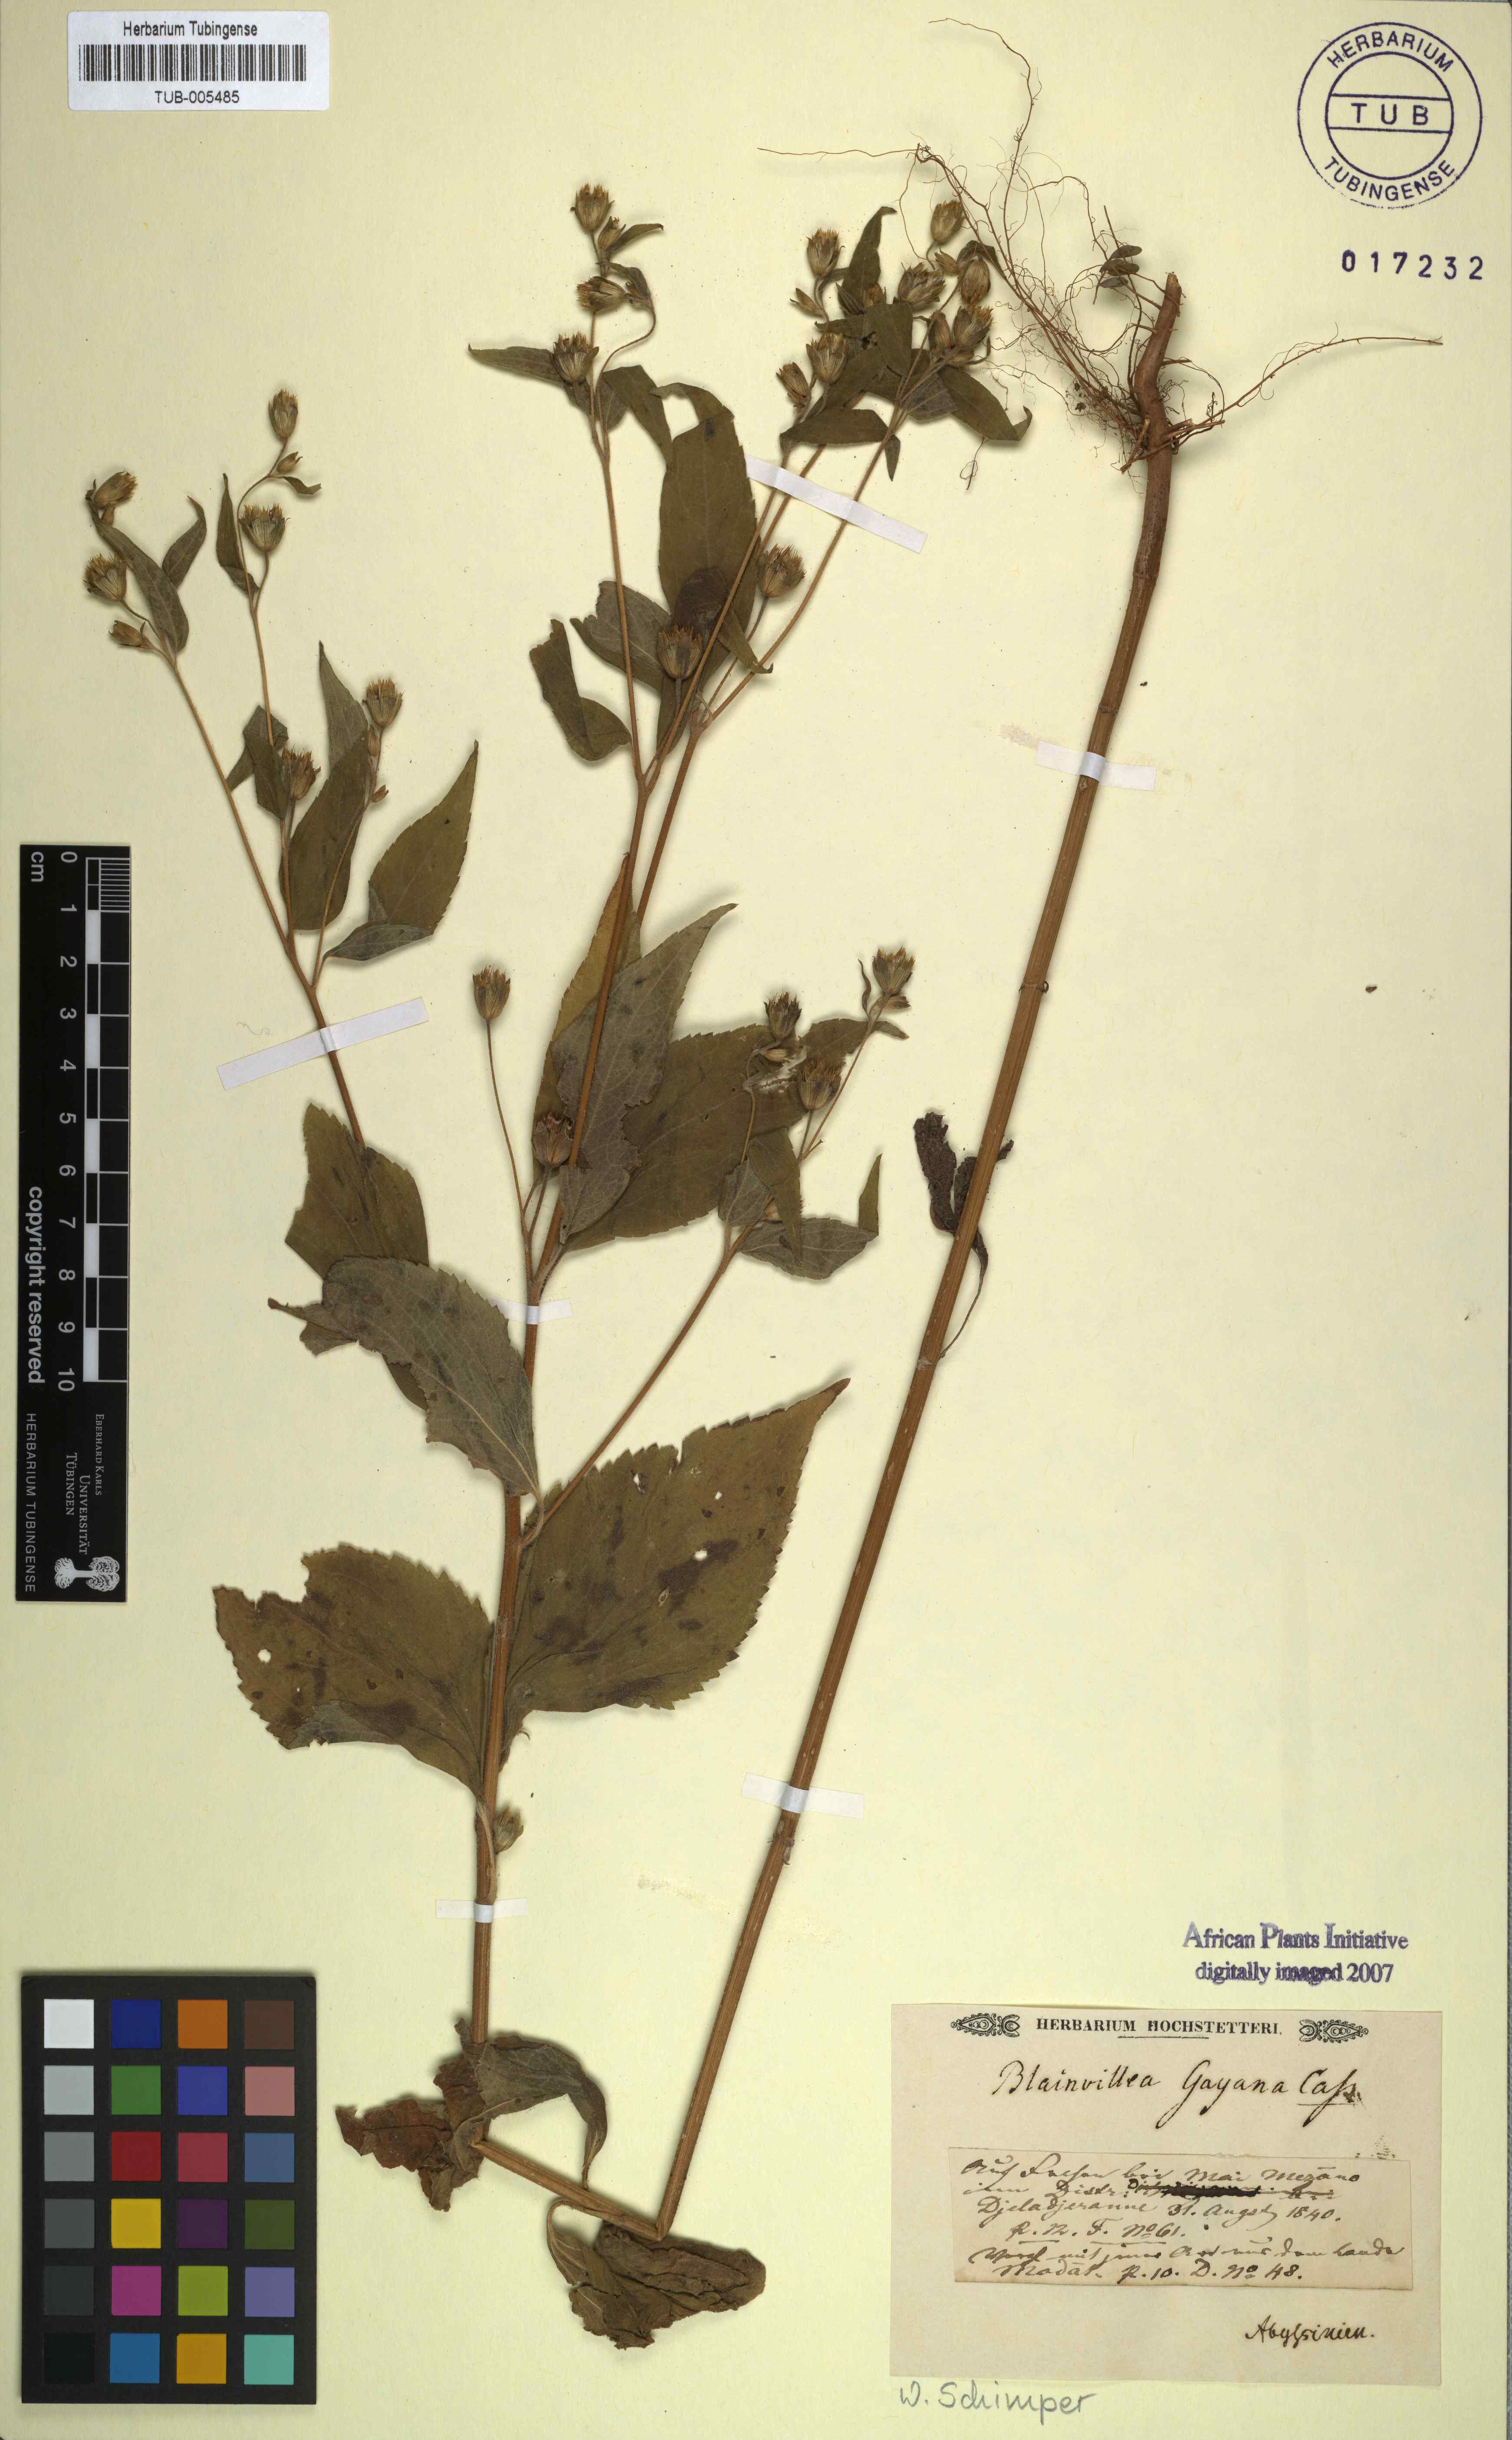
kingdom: Plantae
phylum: Tracheophyta
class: Magnoliopsida
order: Asterales
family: Asteraceae
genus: Blainvillea
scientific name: Blainvillea gayana
